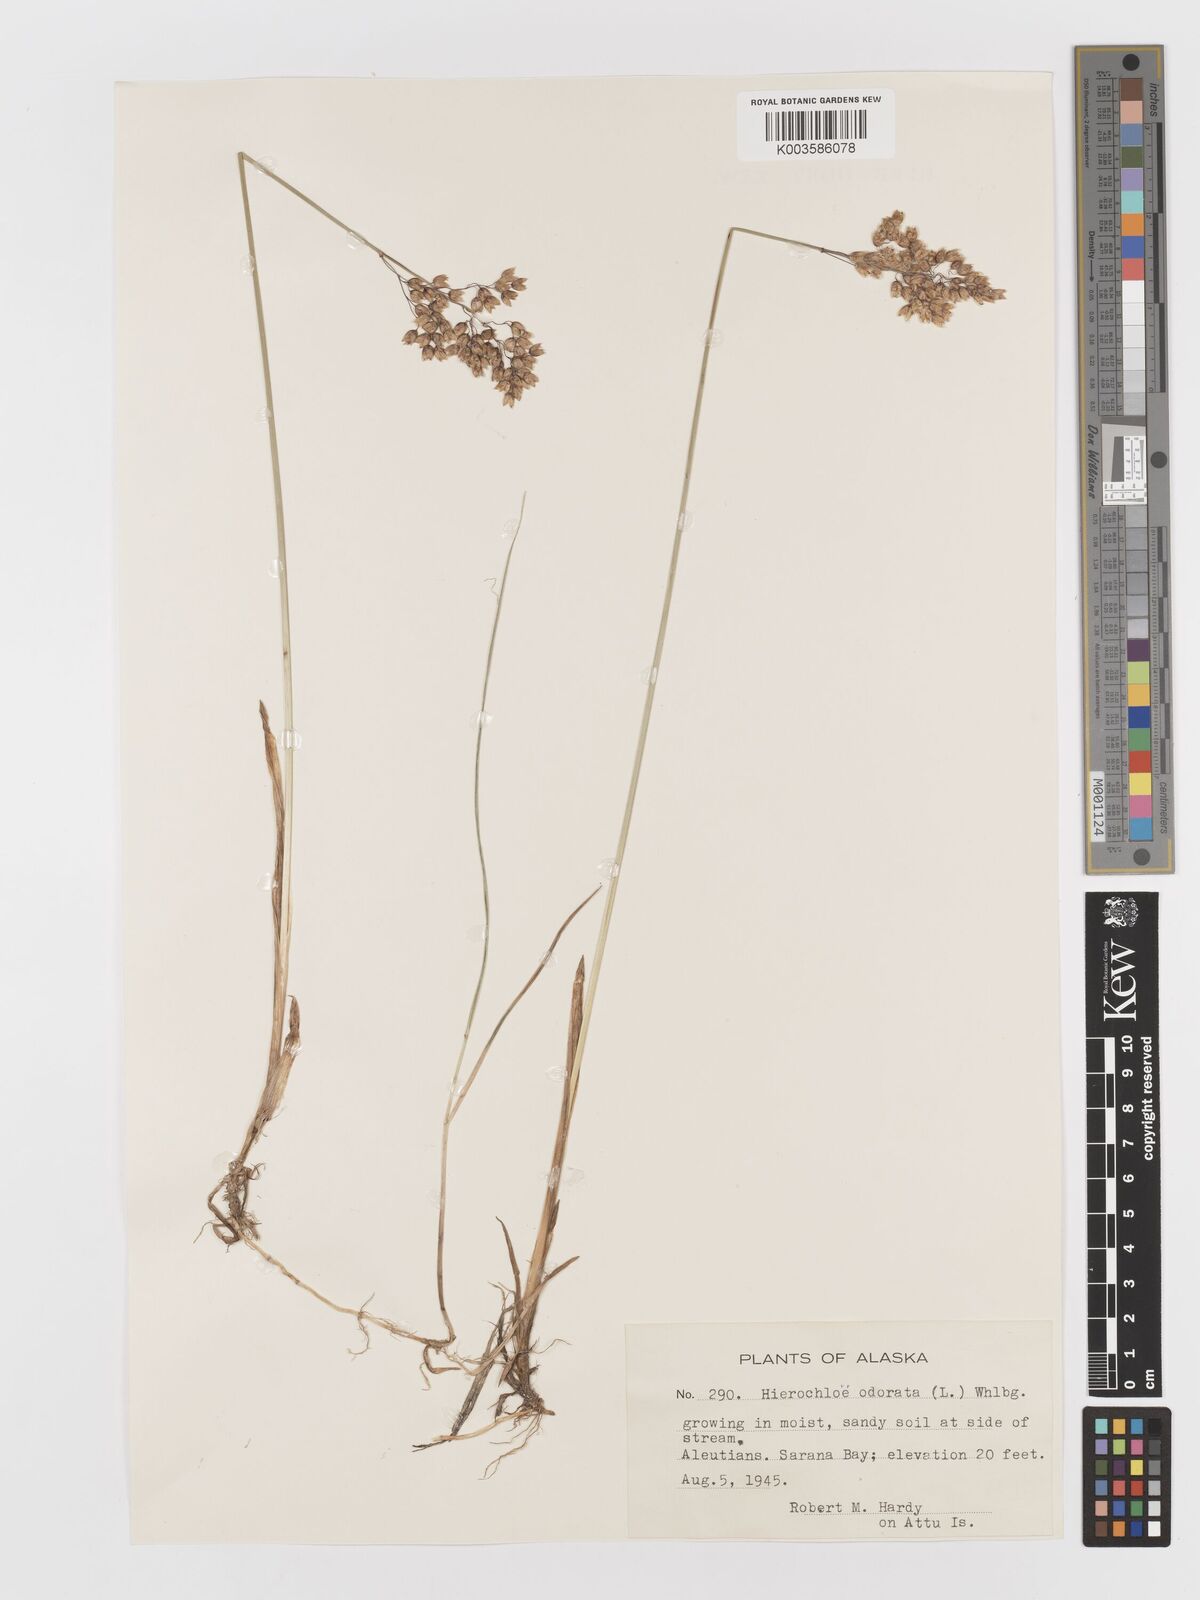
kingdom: Plantae
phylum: Tracheophyta
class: Liliopsida
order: Poales
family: Poaceae
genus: Anthoxanthum
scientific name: Anthoxanthum nitens
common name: Holy grass
